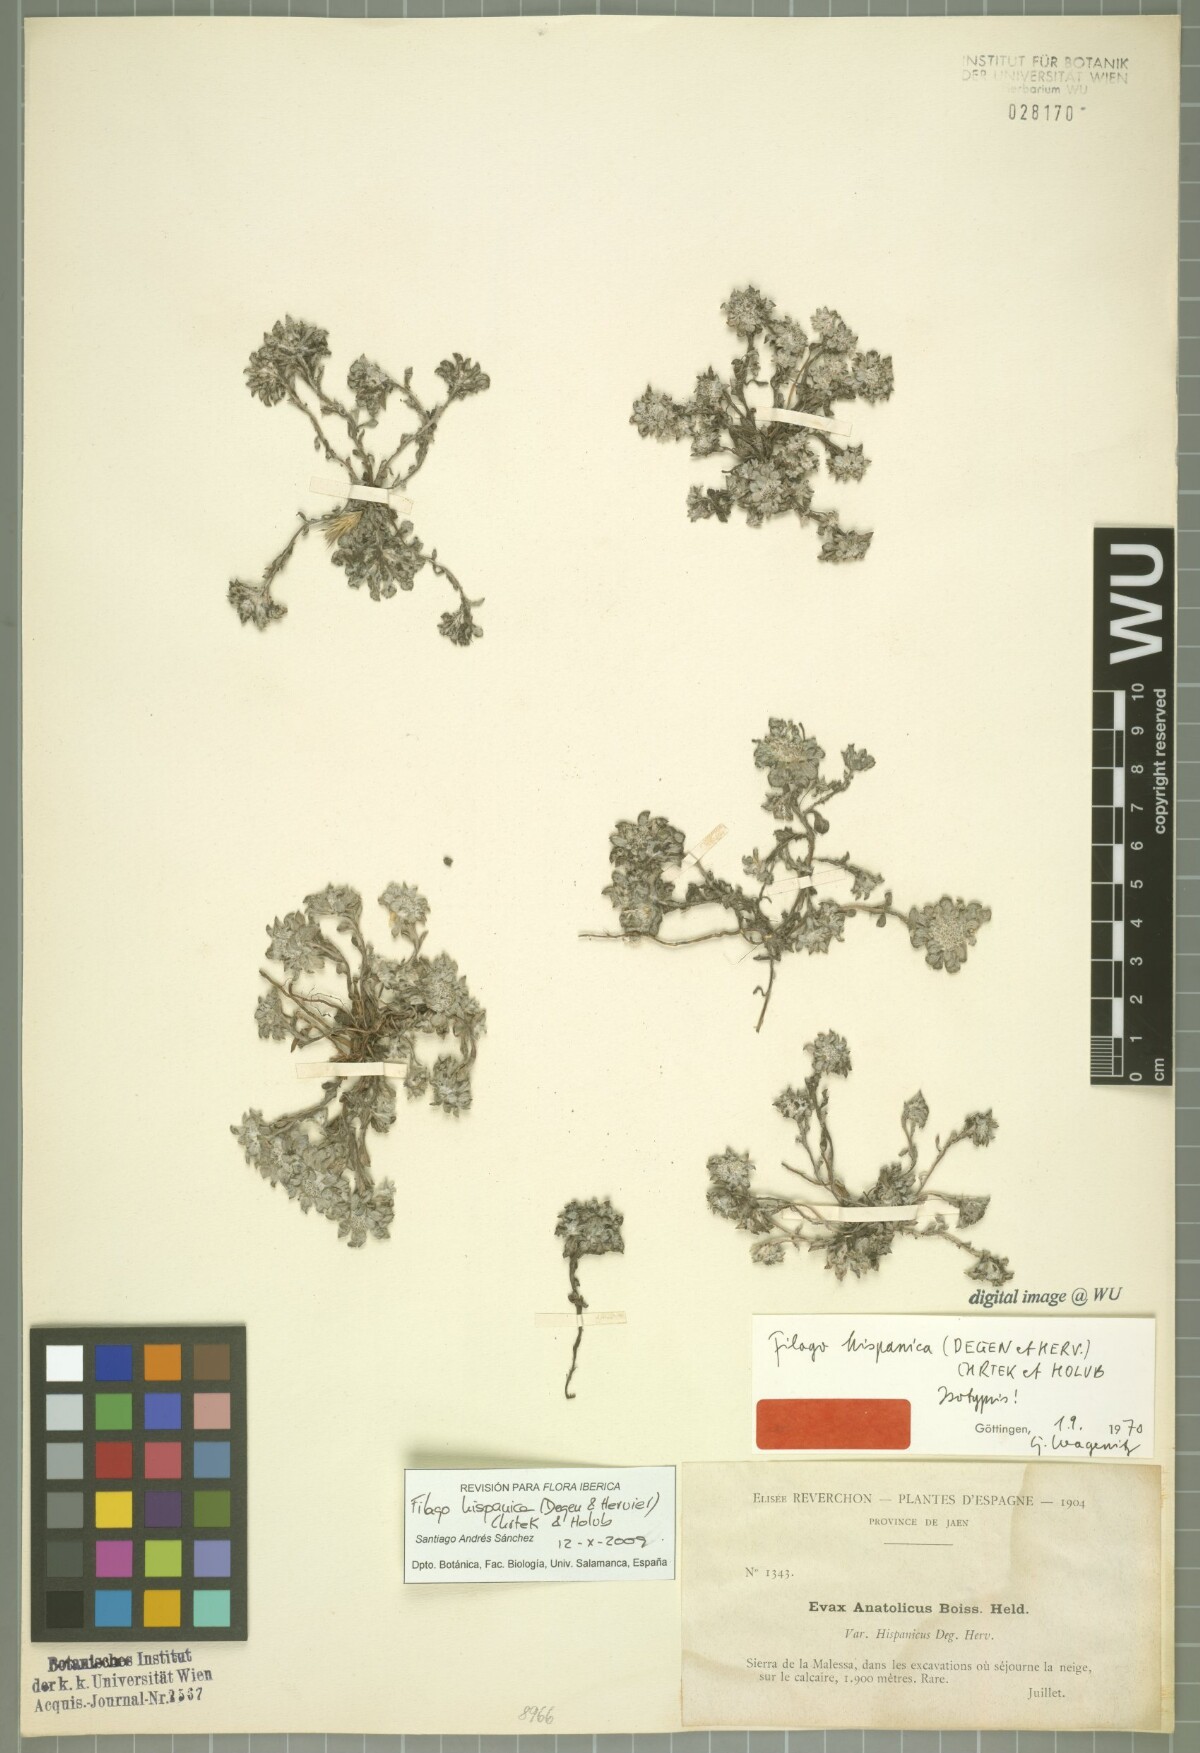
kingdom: Plantae
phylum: Tracheophyta
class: Magnoliopsida
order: Asterales
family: Asteraceae
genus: Filago
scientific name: Filago hispanica
